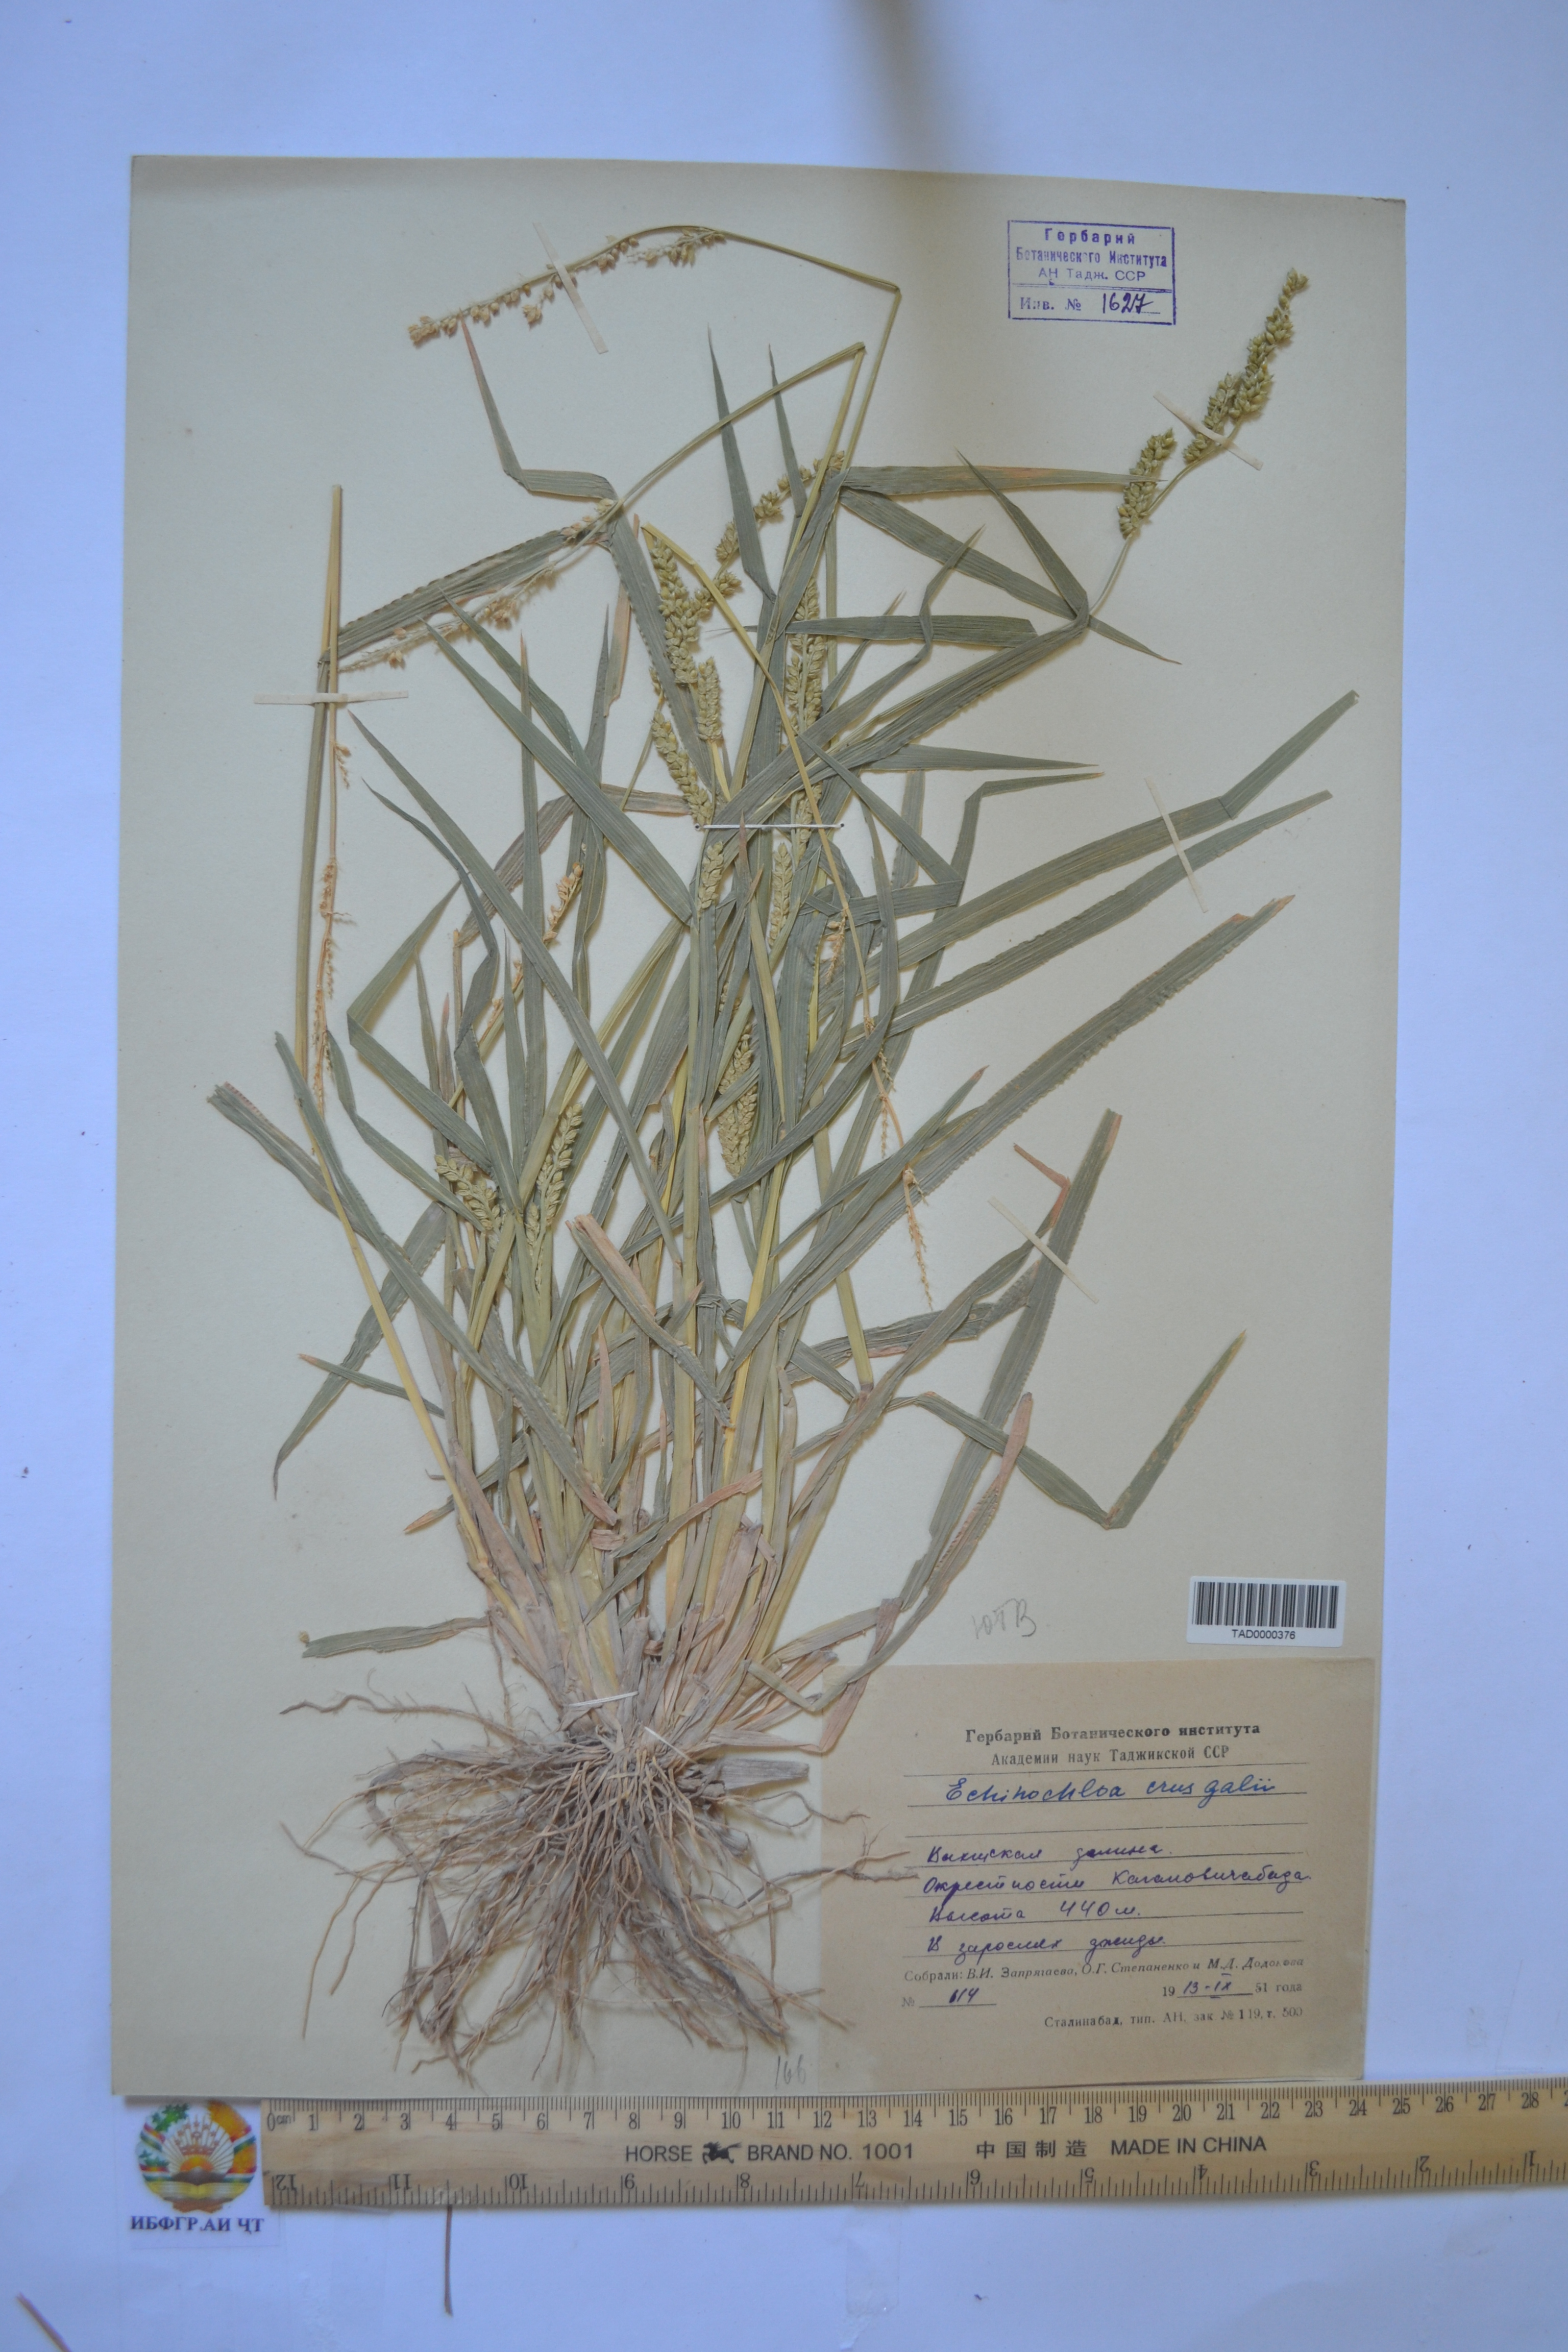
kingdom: Plantae
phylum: Tracheophyta
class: Liliopsida
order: Poales
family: Poaceae
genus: Echinochloa
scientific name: Echinochloa crus-galli
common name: Cockspur
